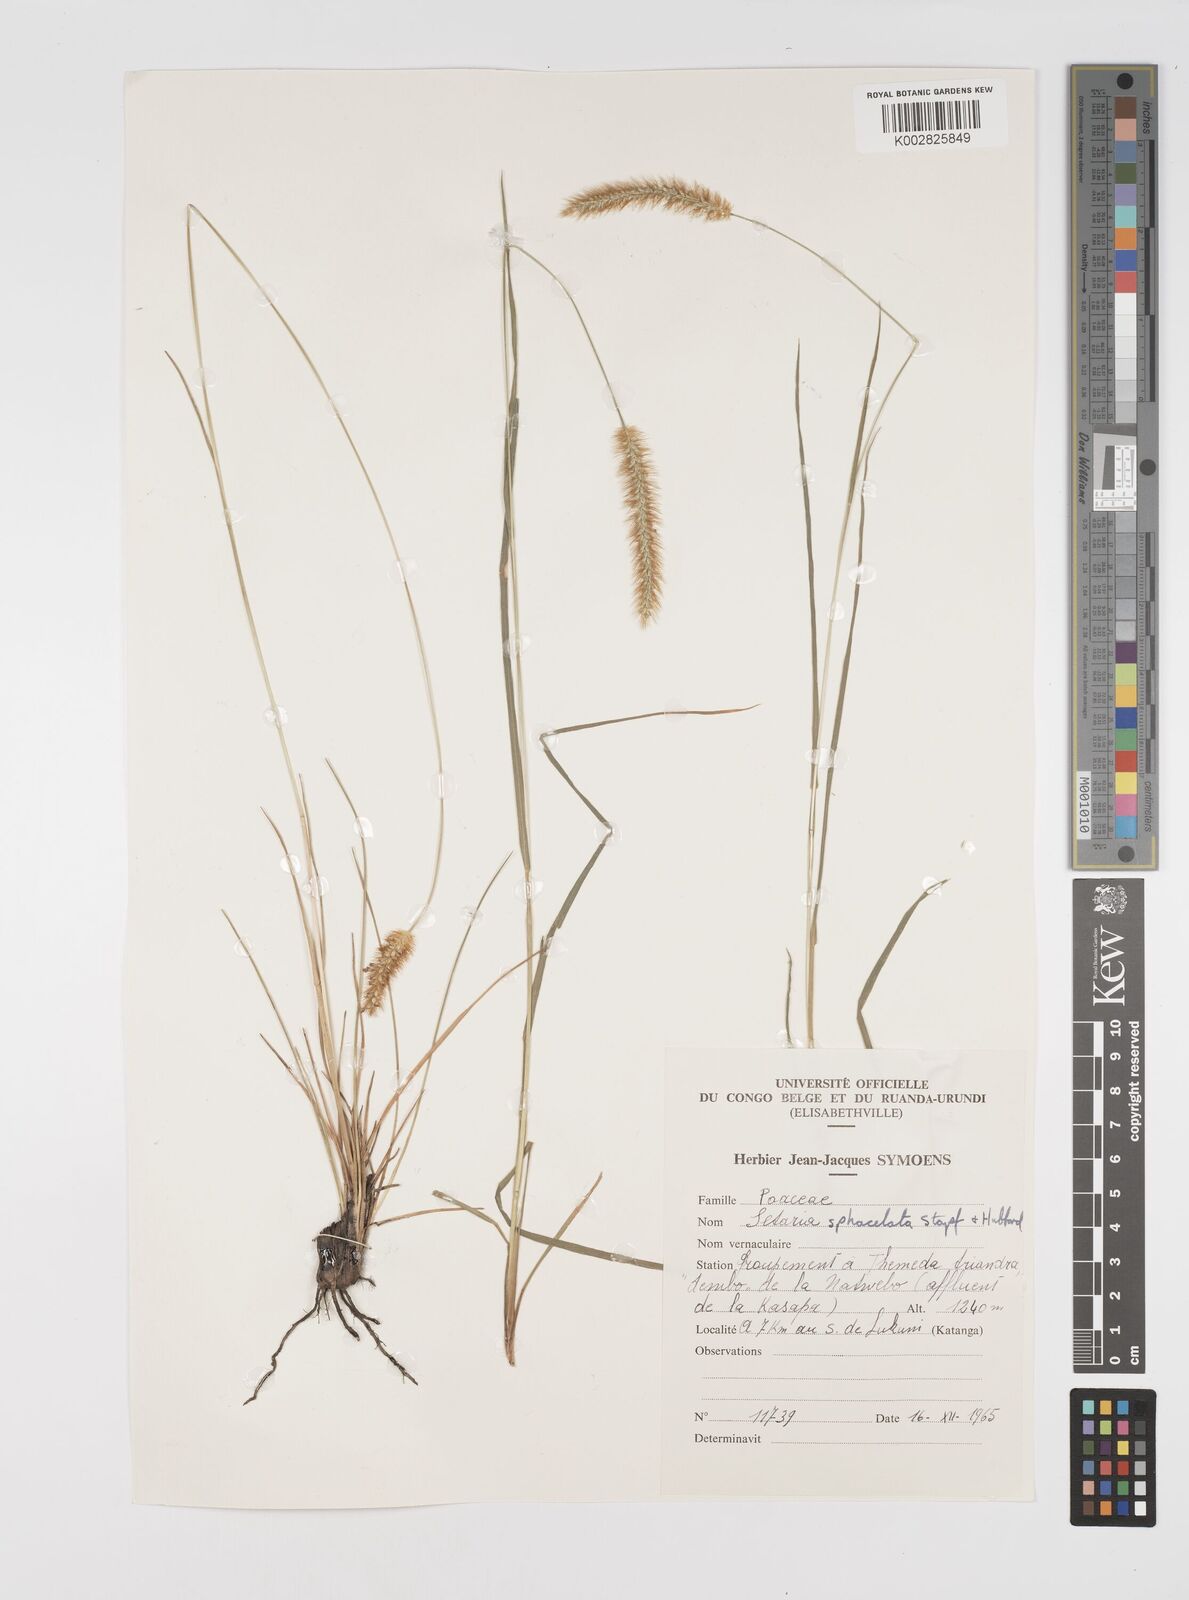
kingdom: Plantae
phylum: Tracheophyta
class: Liliopsida
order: Poales
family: Poaceae
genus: Setaria
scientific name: Setaria sphacelata
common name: African bristlegrass
